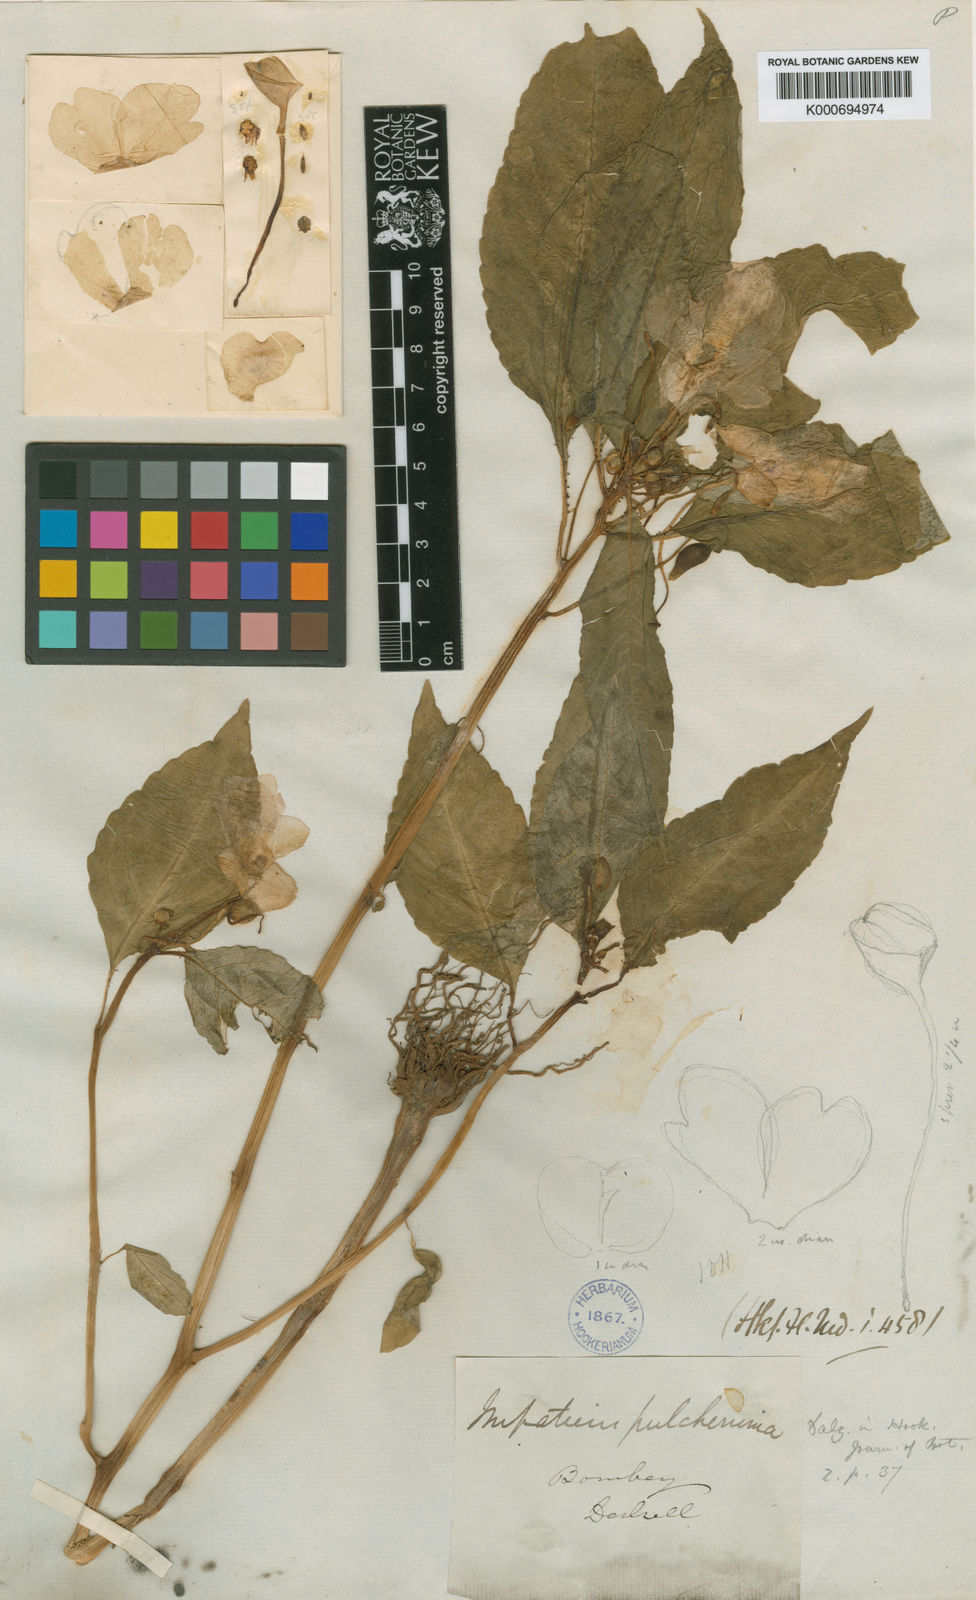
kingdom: Plantae
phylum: Tracheophyta
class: Magnoliopsida
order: Ericales
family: Balsaminaceae
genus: Impatiens
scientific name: Impatiens pulcherrima
